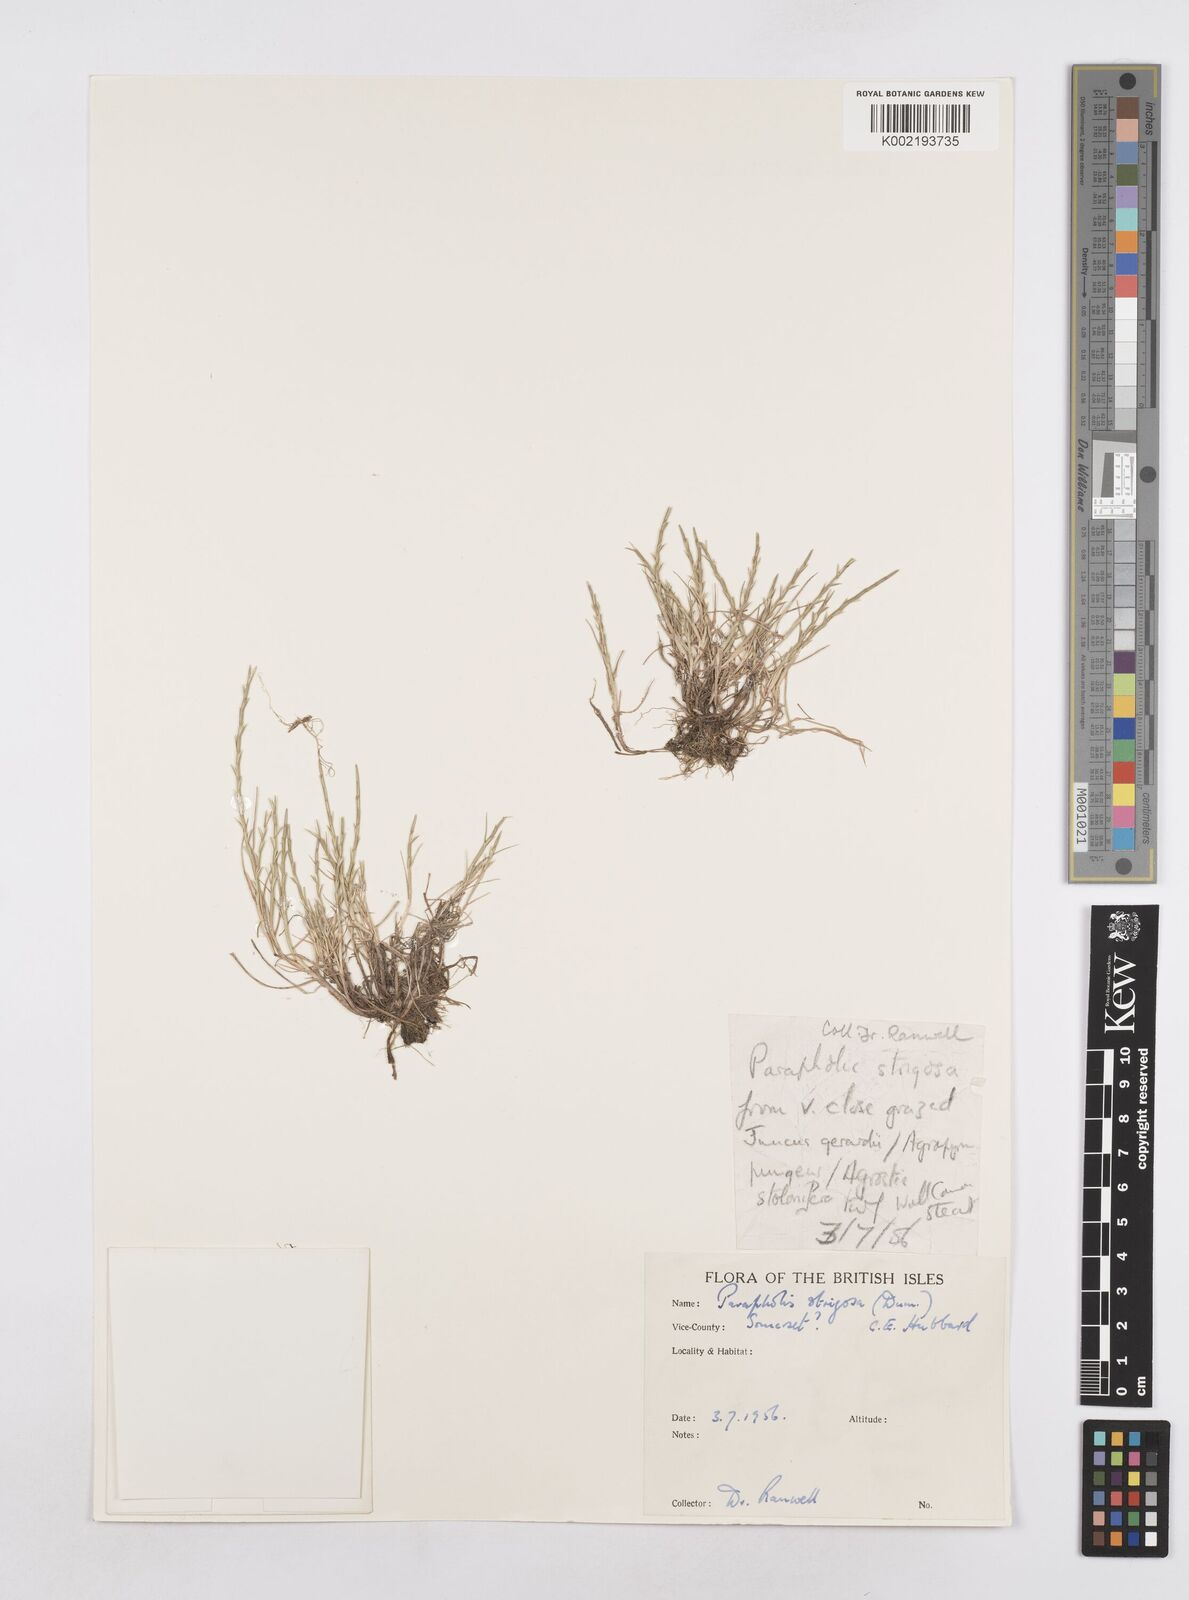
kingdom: Plantae
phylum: Tracheophyta
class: Liliopsida
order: Poales
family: Poaceae
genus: Parapholis
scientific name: Parapholis strigosa
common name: Hard-grass
